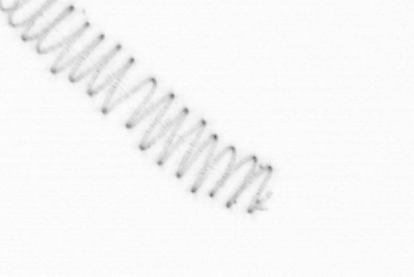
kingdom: Chromista
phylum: Ochrophyta
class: Bacillariophyceae
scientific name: Bacillariophyceae
